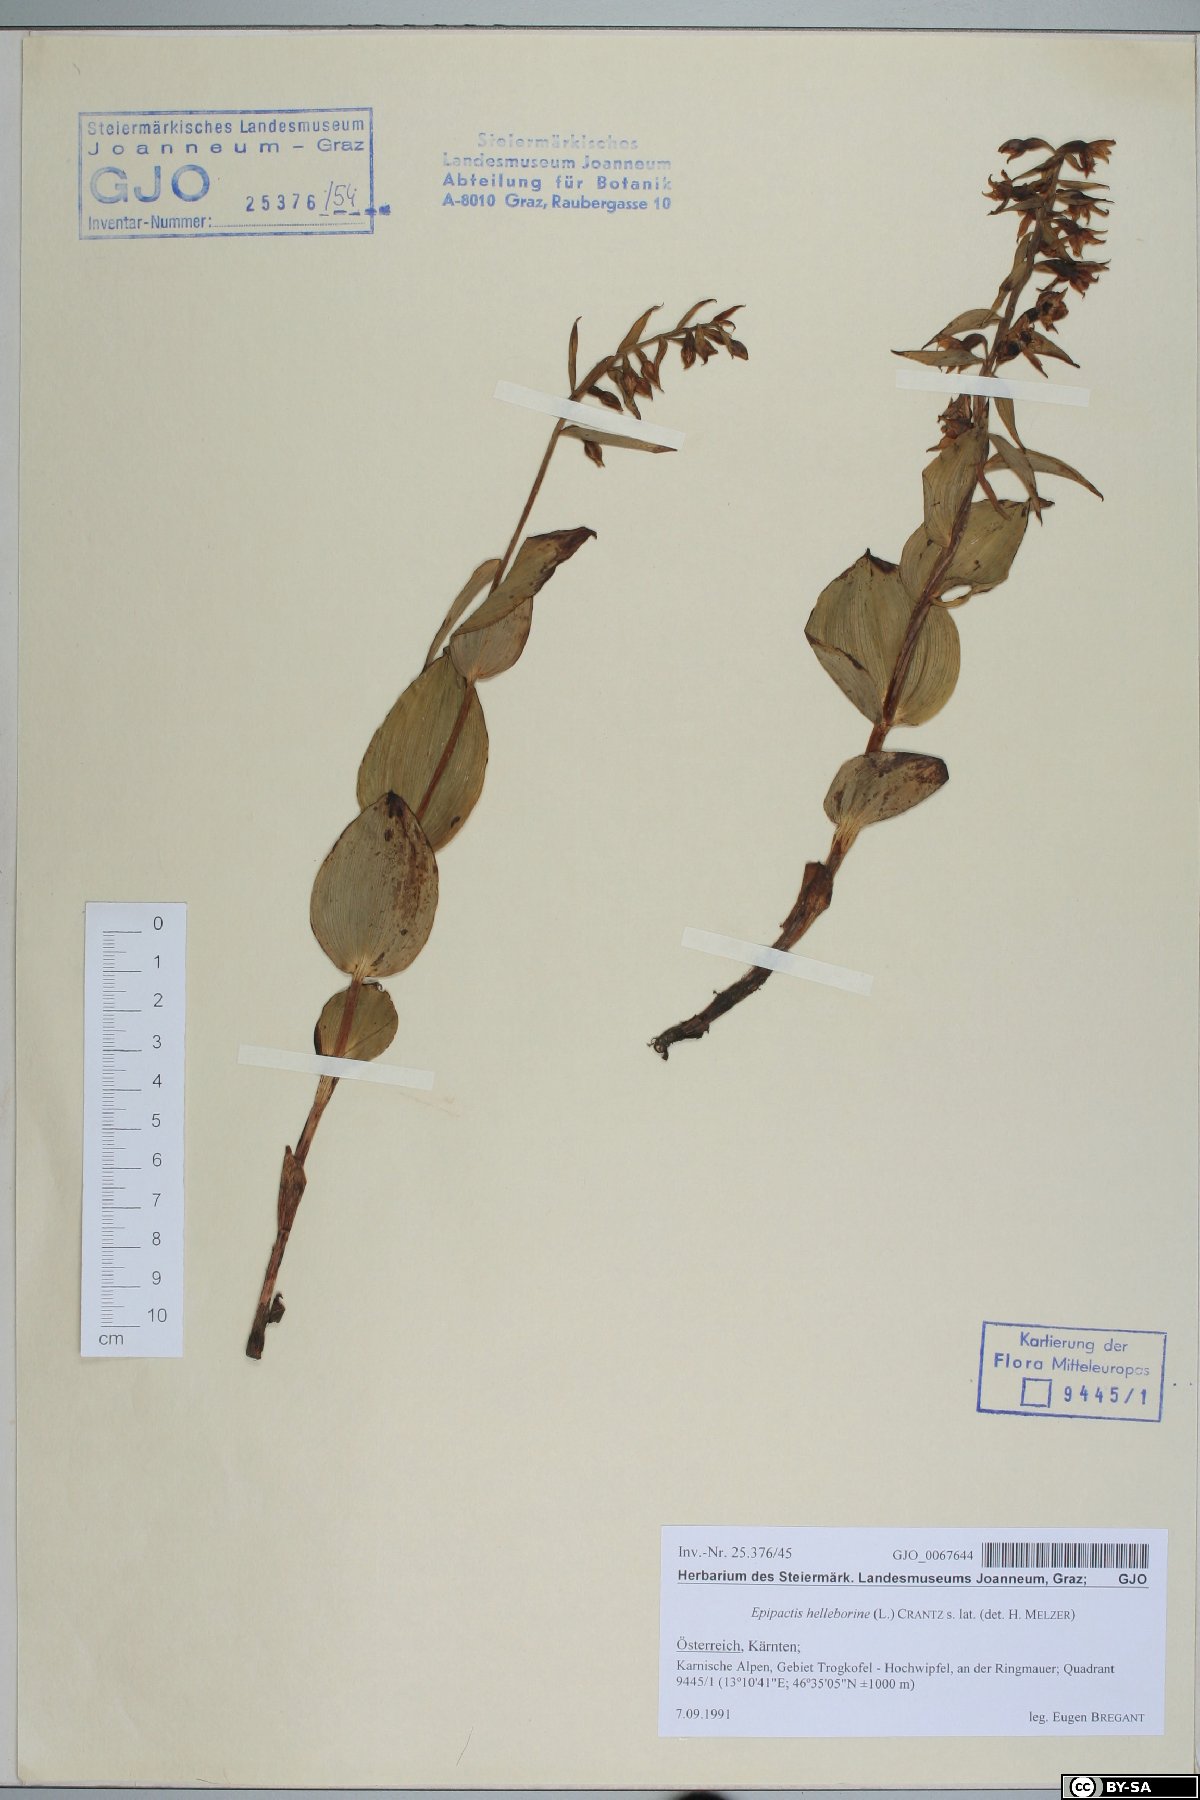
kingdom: Plantae
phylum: Tracheophyta
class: Liliopsida
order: Asparagales
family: Orchidaceae
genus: Epipactis
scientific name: Epipactis helleborine
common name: Broad-leaved helleborine
